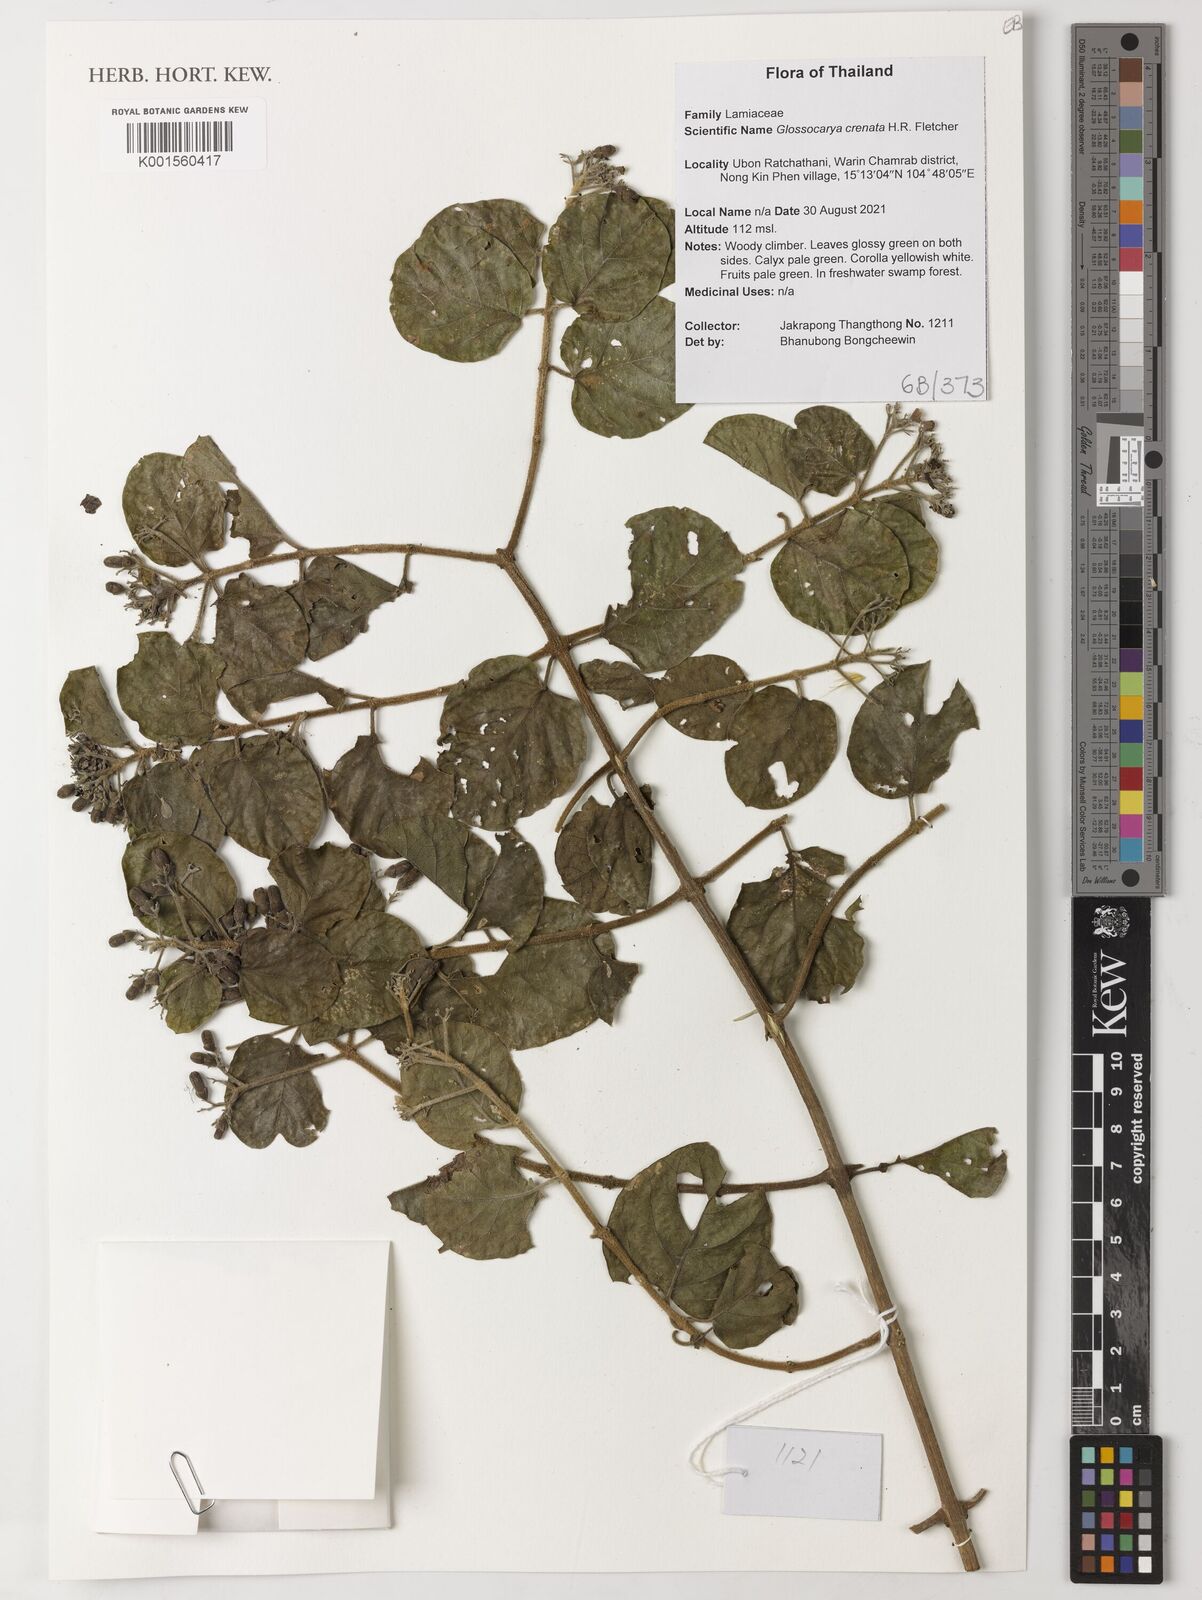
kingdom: Plantae
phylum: Tracheophyta
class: Magnoliopsida
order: Lamiales
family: Lamiaceae
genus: Glossocarya
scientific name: Glossocarya crenata
